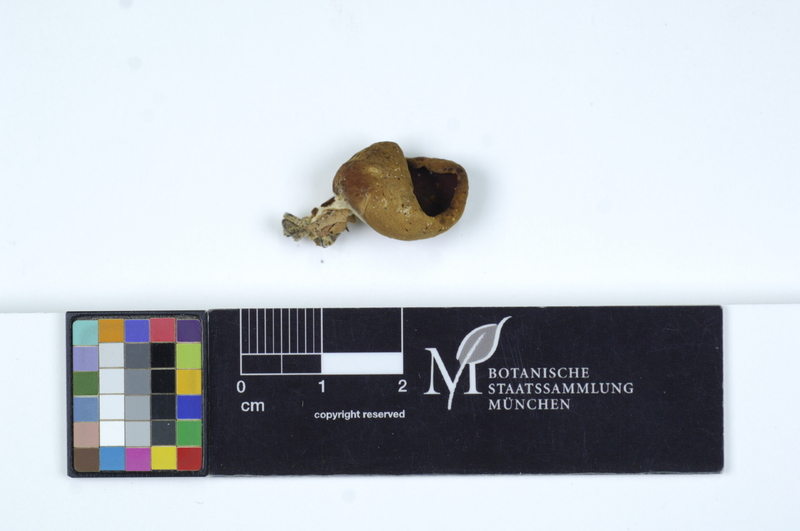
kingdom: Fungi
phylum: Ascomycota
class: Pezizomycetes
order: Pezizales
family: Otideaceae
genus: Otidea
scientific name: Otidea cantharella
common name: Cupped ear
